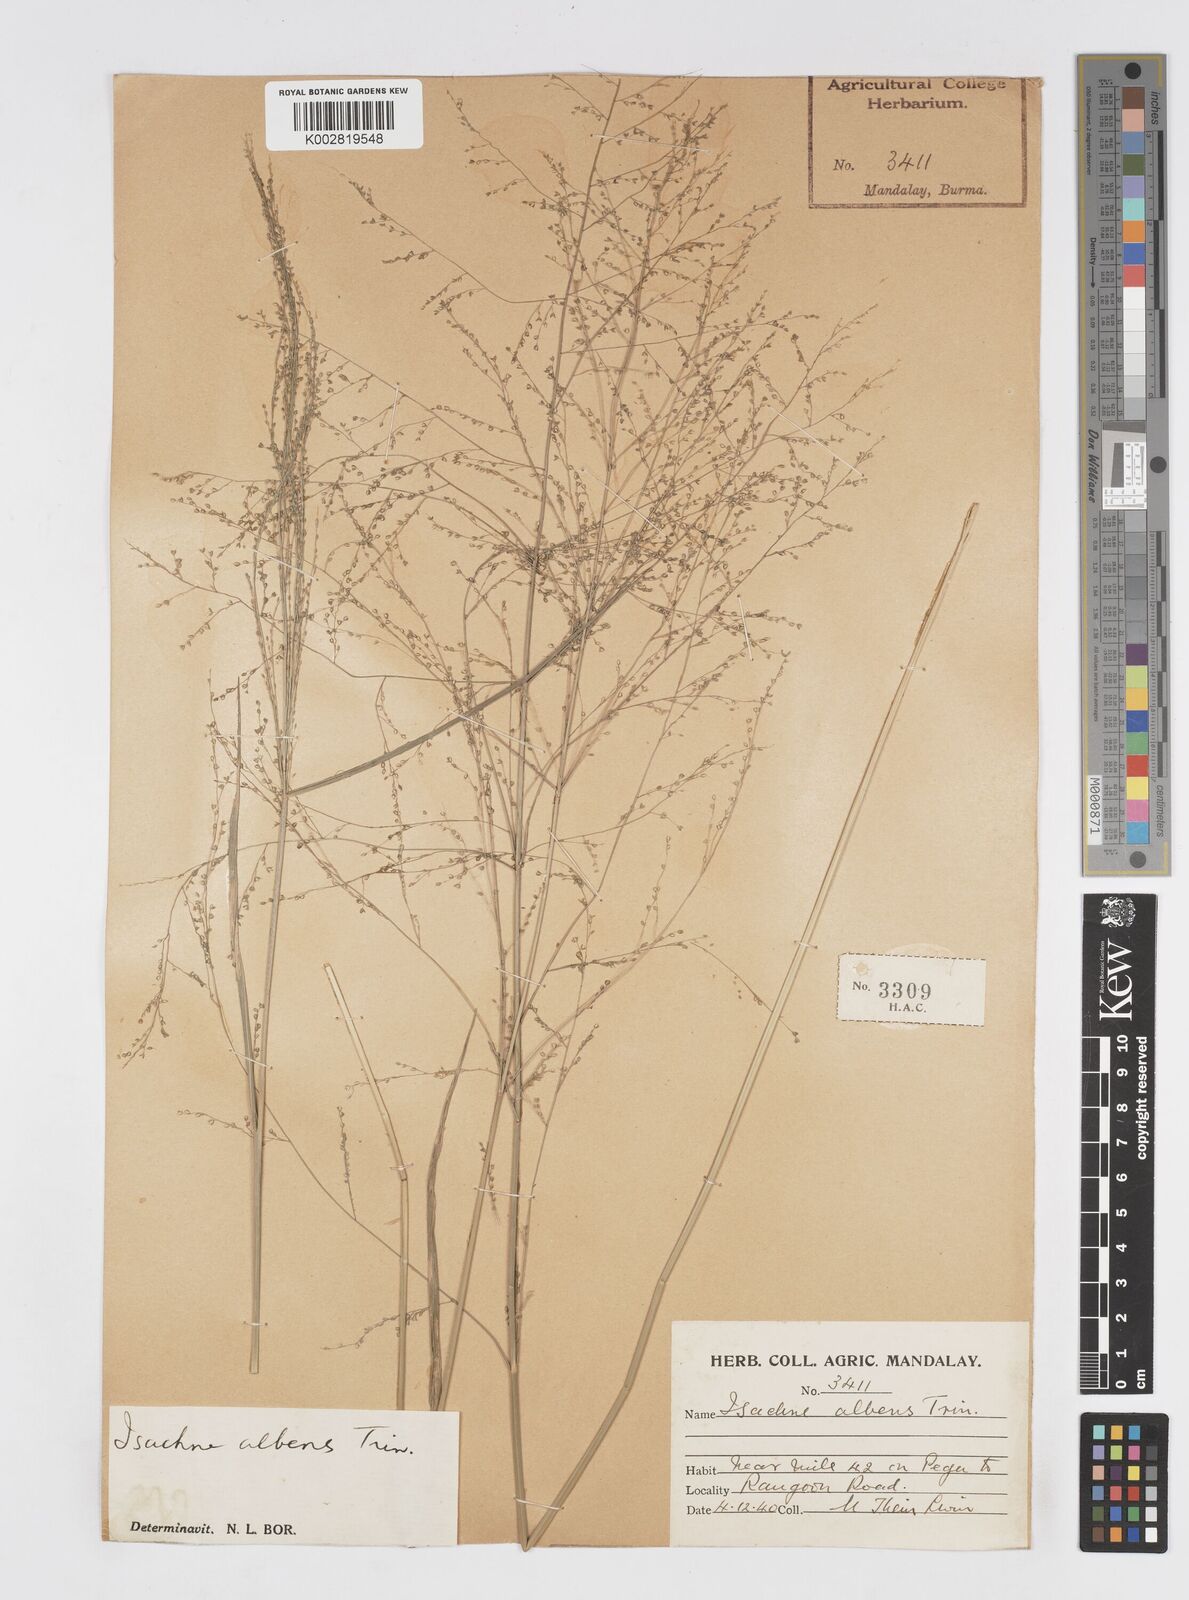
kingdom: Plantae
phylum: Tracheophyta
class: Liliopsida
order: Poales
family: Poaceae
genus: Isachne
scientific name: Isachne albens
